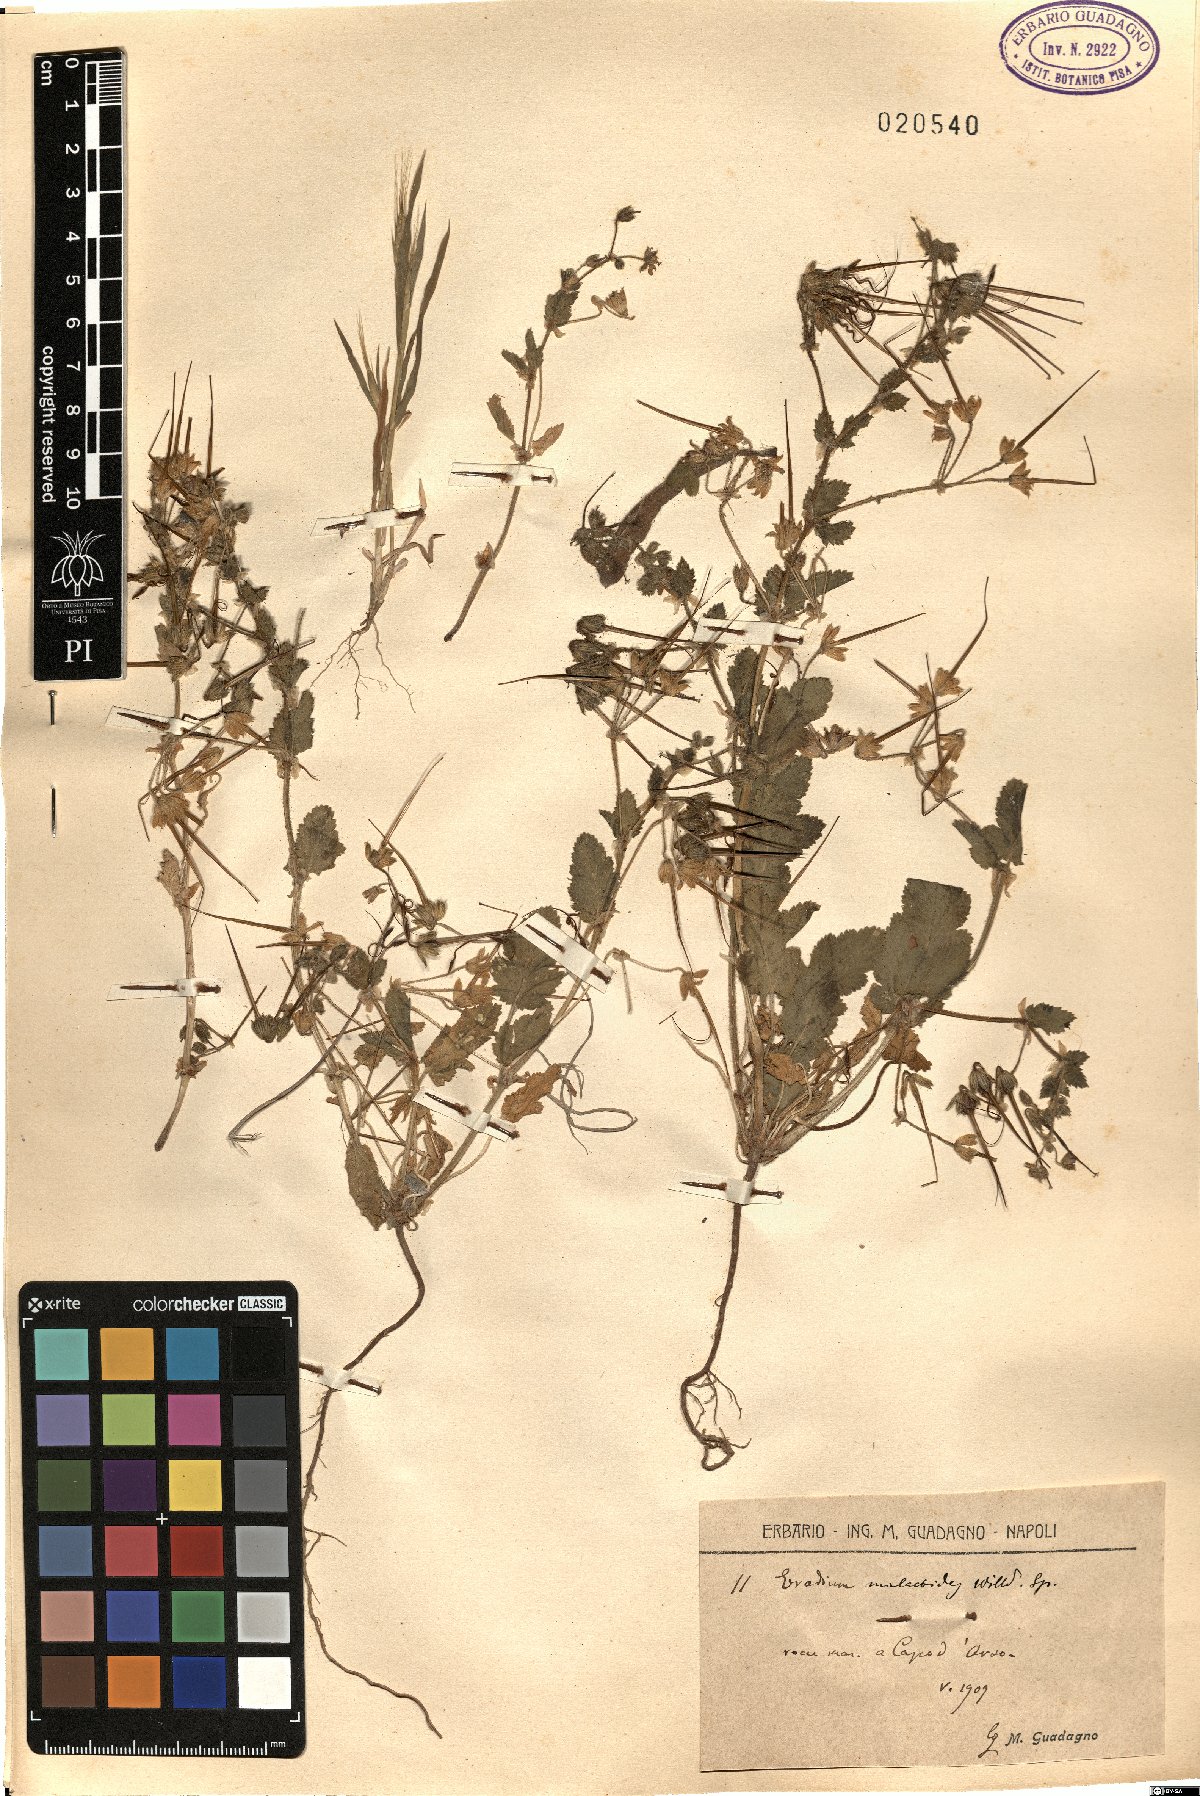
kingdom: Plantae
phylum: Tracheophyta
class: Magnoliopsida
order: Geraniales
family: Geraniaceae
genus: Erodium
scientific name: Erodium malacoides
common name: Soft stork's-bill
